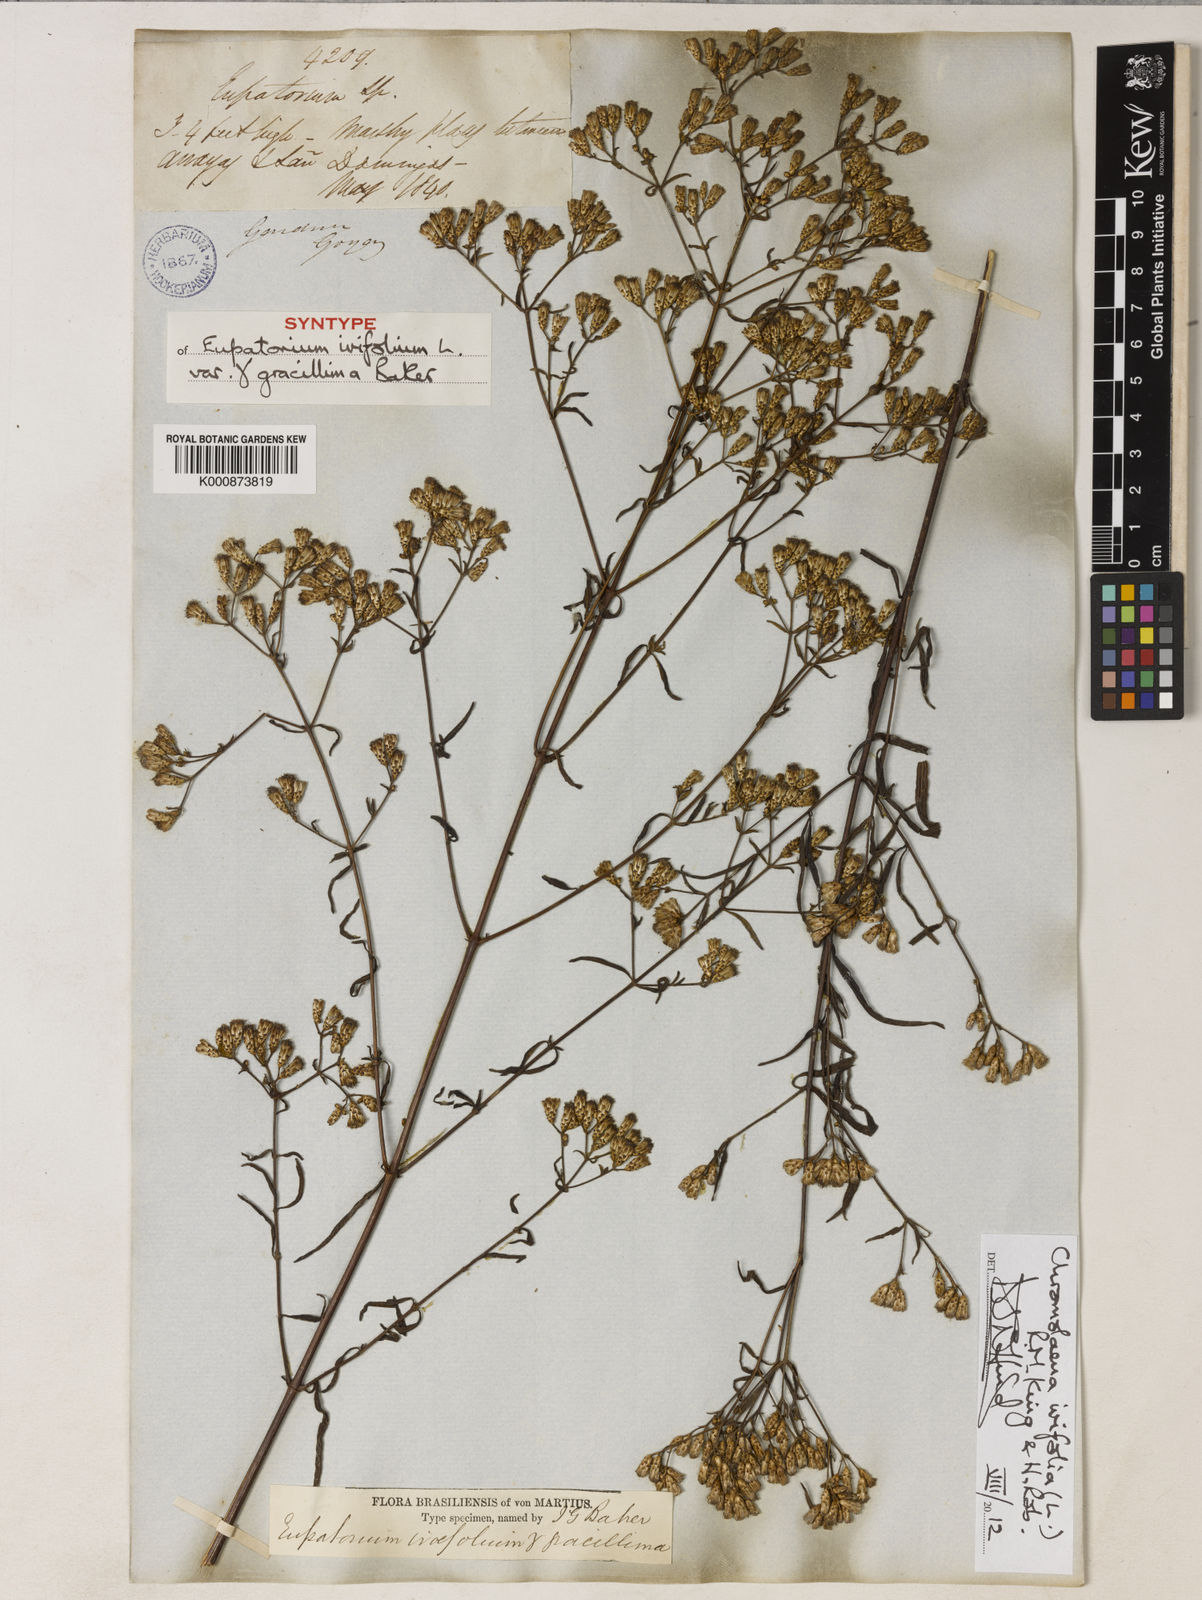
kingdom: Plantae
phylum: Tracheophyta
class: Magnoliopsida
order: Asterales
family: Asteraceae
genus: Chromolaena
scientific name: Chromolaena ivifolia
